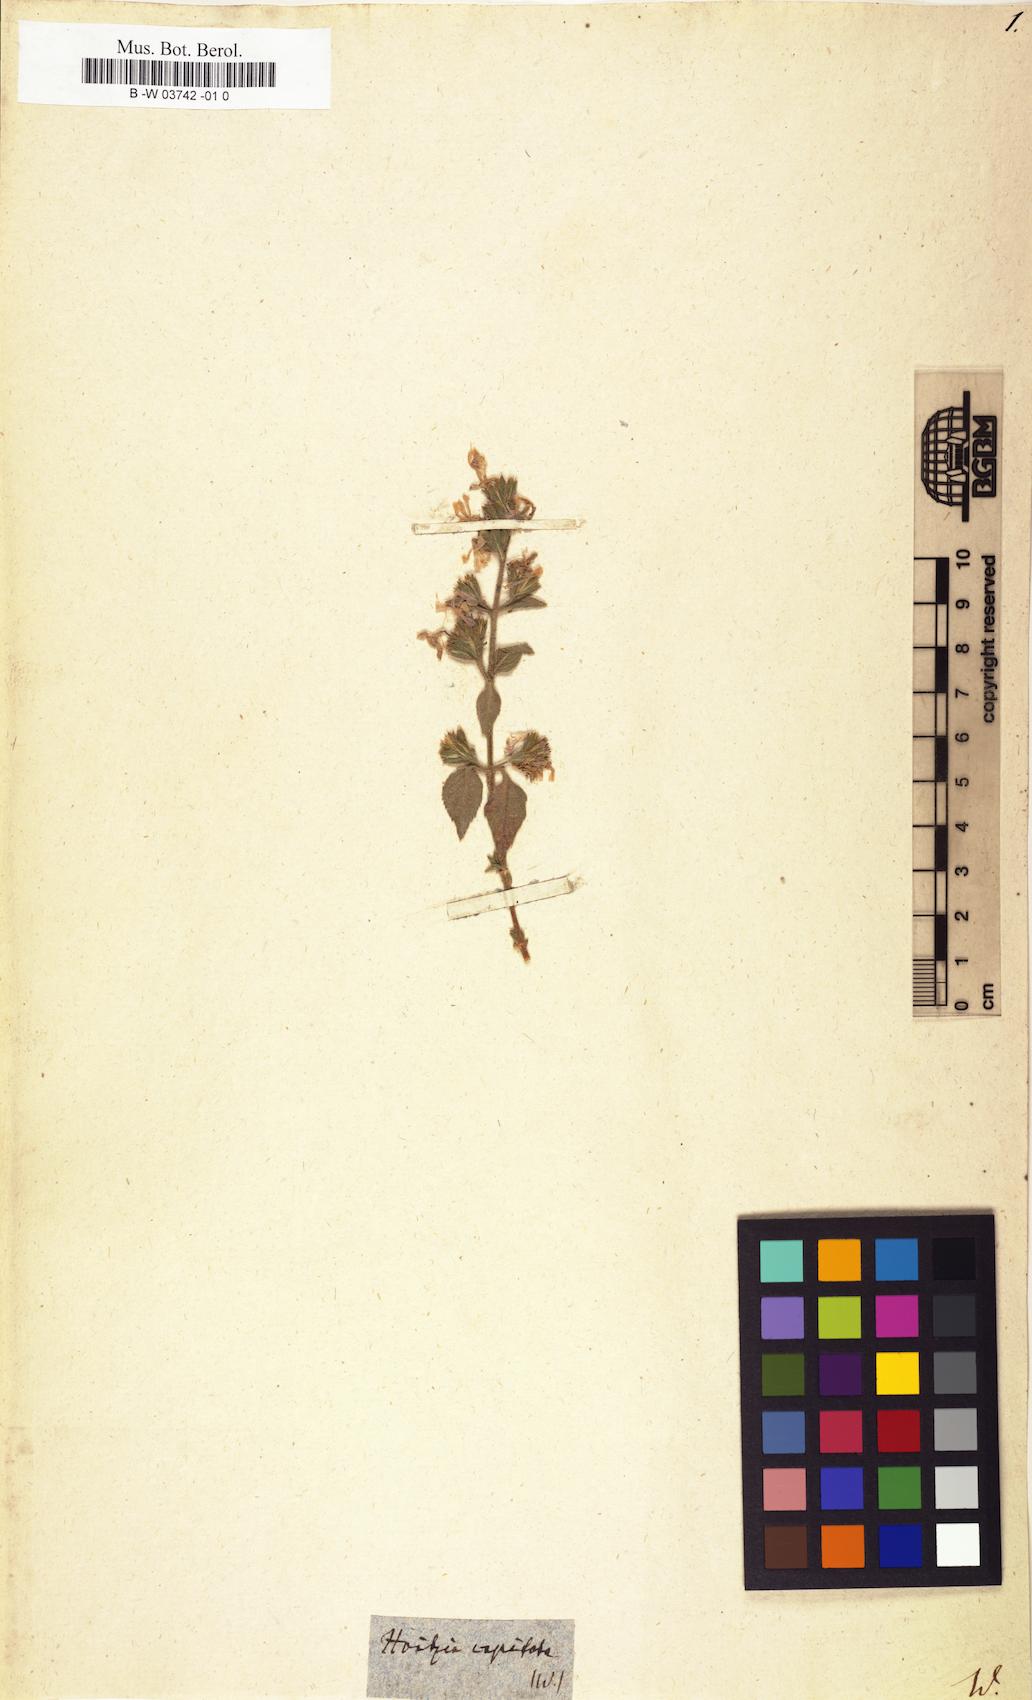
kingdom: Plantae
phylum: Tracheophyta
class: Magnoliopsida
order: Ericales
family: Polemoniaceae
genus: Loeselia
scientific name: Loeselia glandulosa
